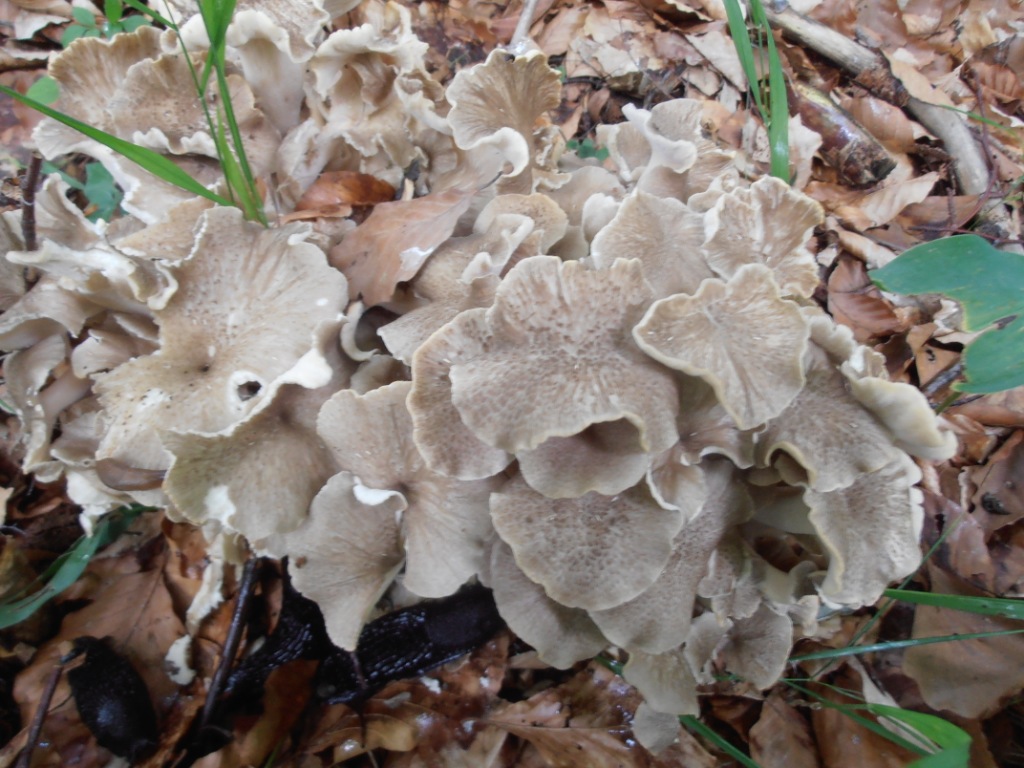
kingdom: Fungi
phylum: Basidiomycota
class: Agaricomycetes
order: Polyporales
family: Polyporaceae
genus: Polyporus
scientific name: Polyporus umbellatus
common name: skærmformet stilkporesvamp
